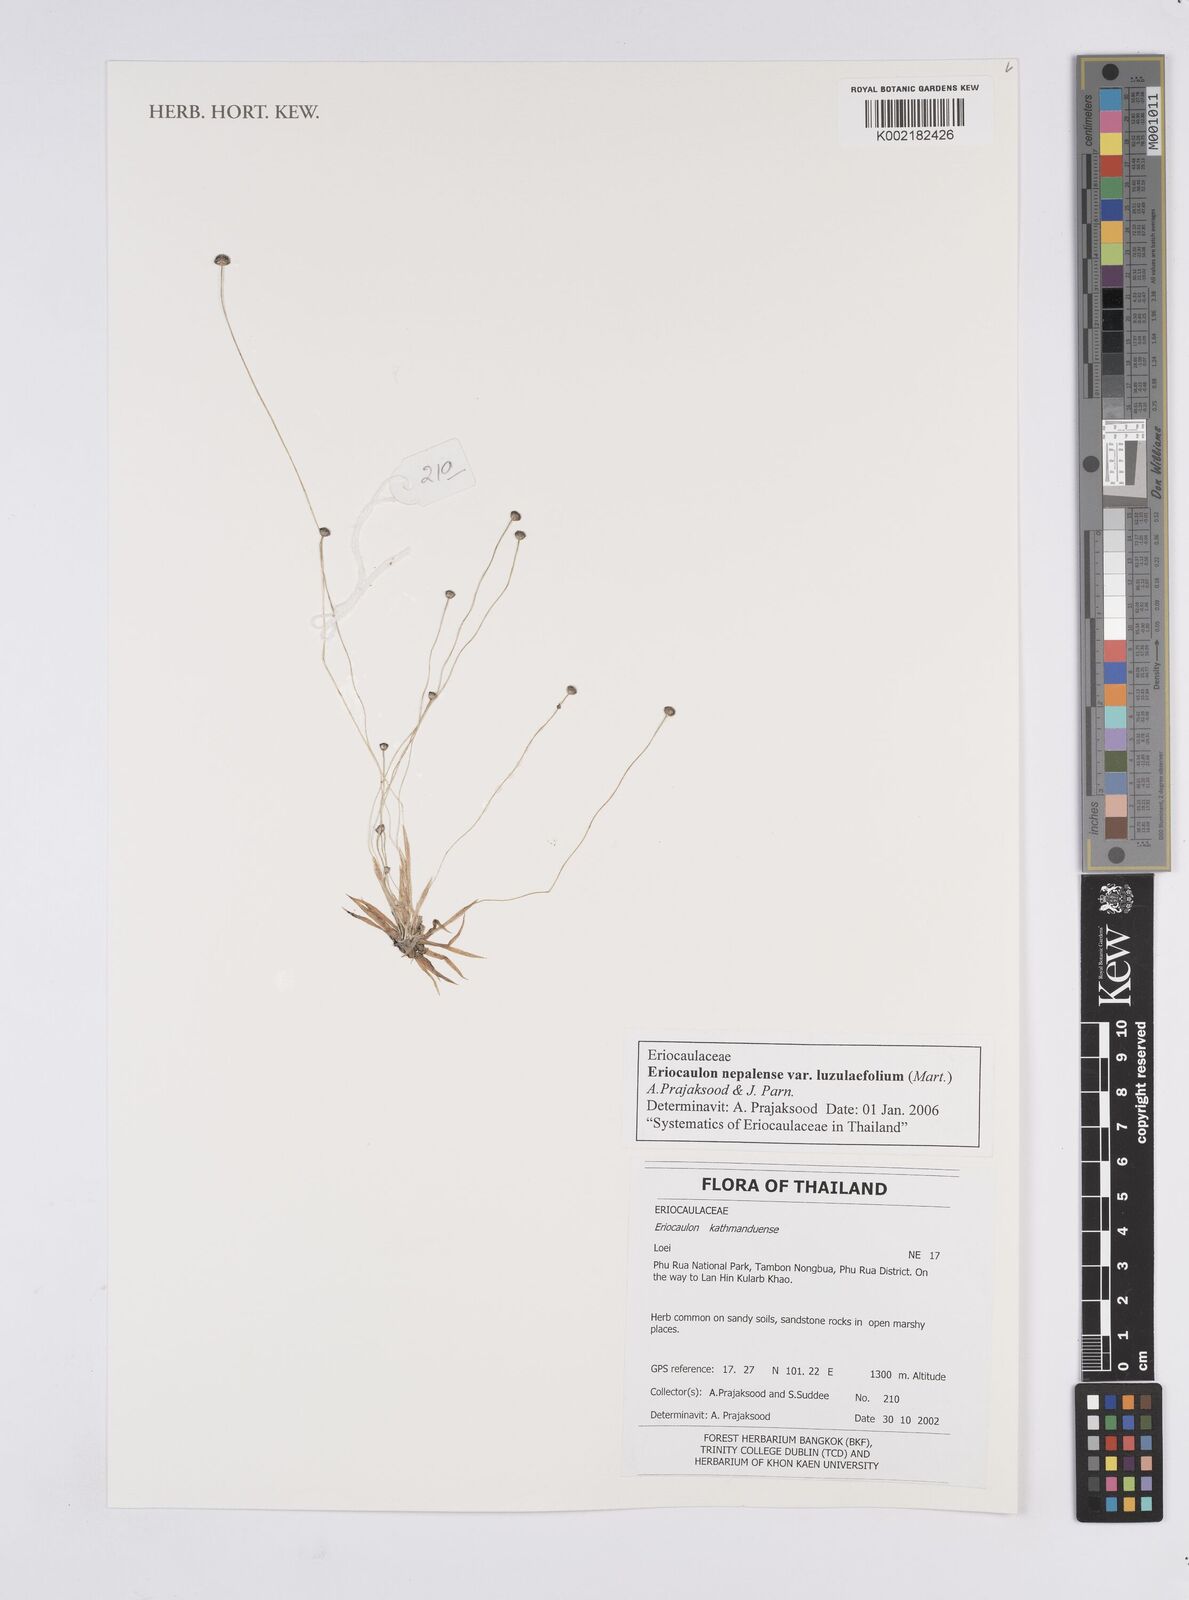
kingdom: Plantae
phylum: Tracheophyta
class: Liliopsida
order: Poales
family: Eriocaulaceae
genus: Eriocaulon
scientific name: Eriocaulon nepalense
